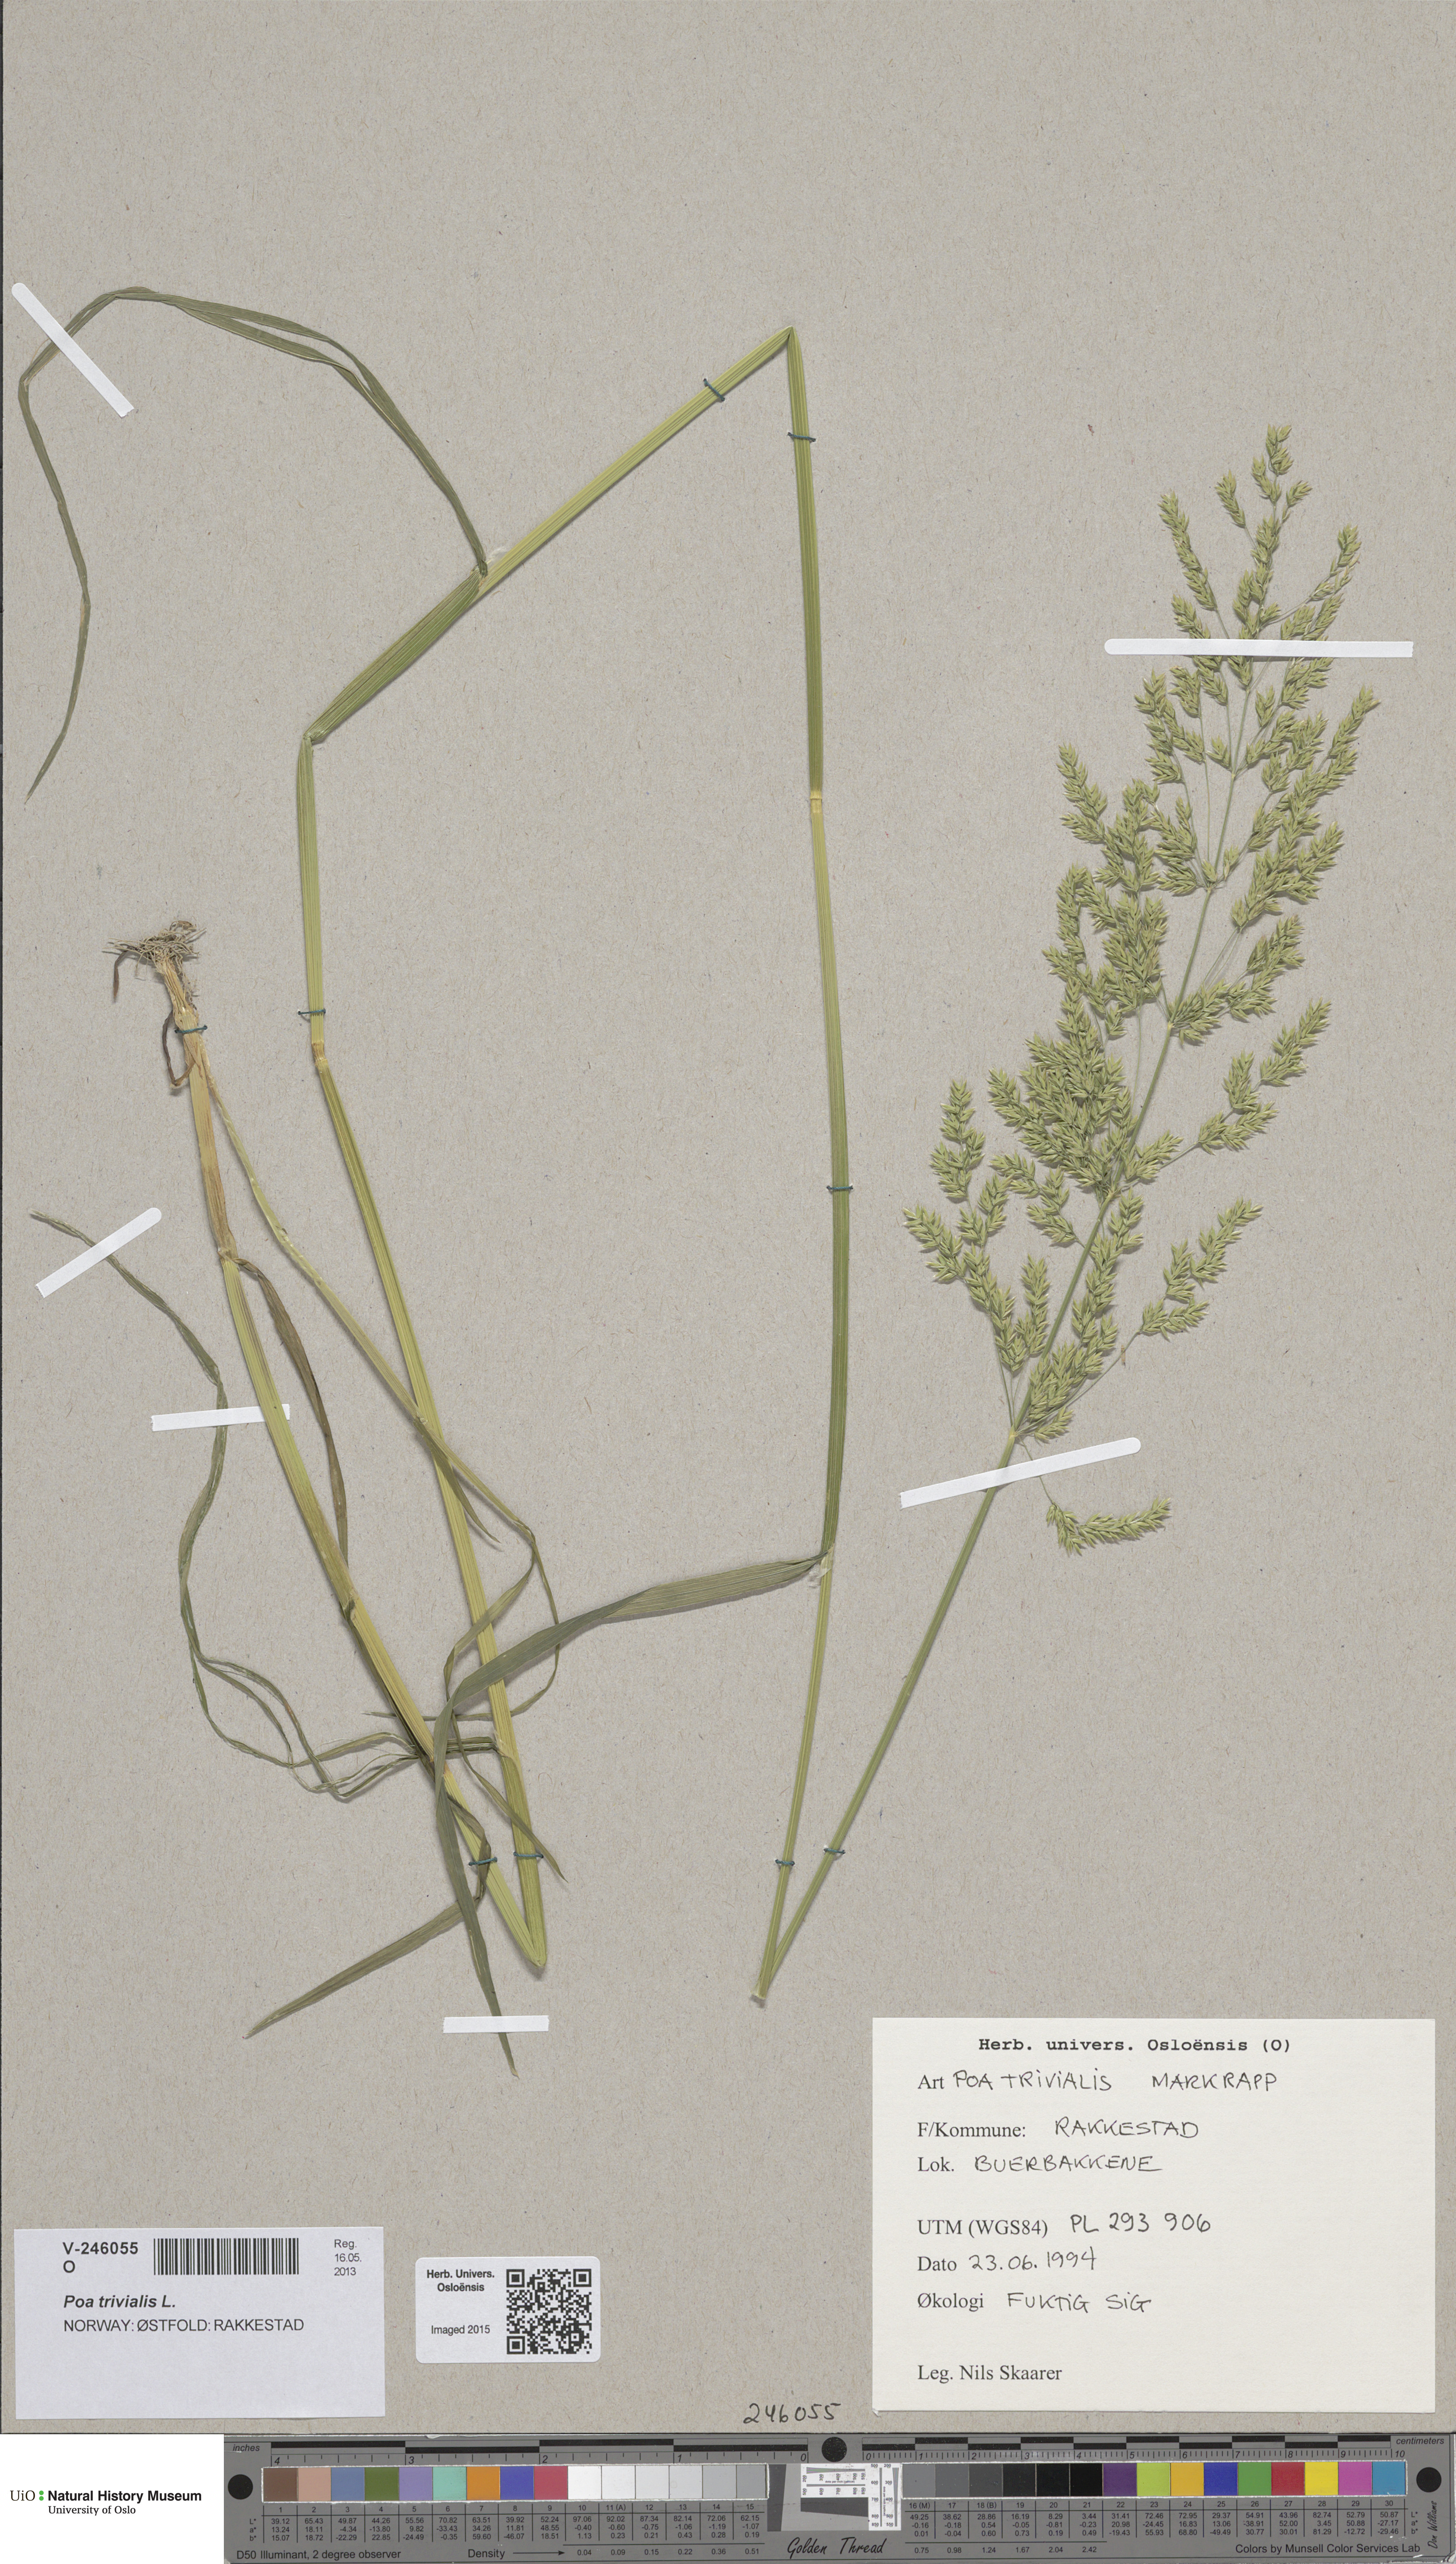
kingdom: Plantae
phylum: Tracheophyta
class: Liliopsida
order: Poales
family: Poaceae
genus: Poa
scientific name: Poa trivialis
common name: Rough bluegrass
